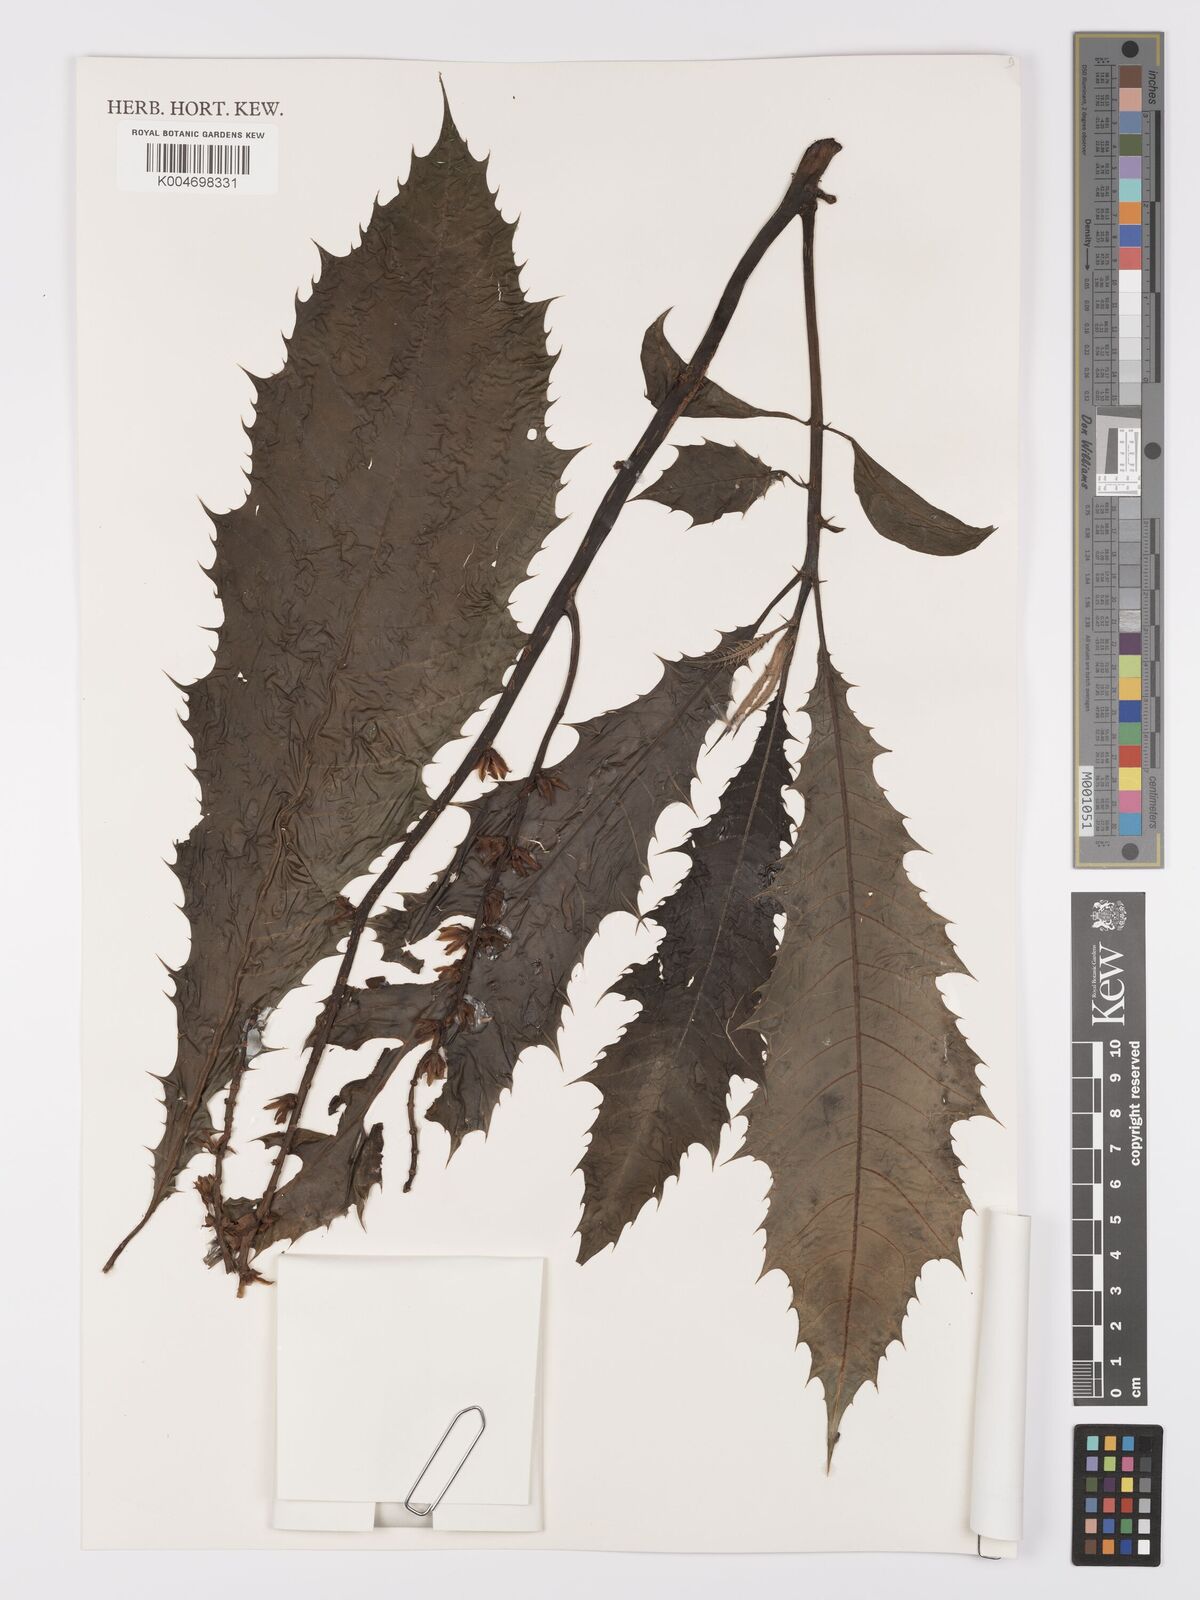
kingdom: Plantae
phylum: Tracheophyta
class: Magnoliopsida
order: Lamiales
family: Acanthaceae
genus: Aphelandra
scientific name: Aphelandra runcinata
